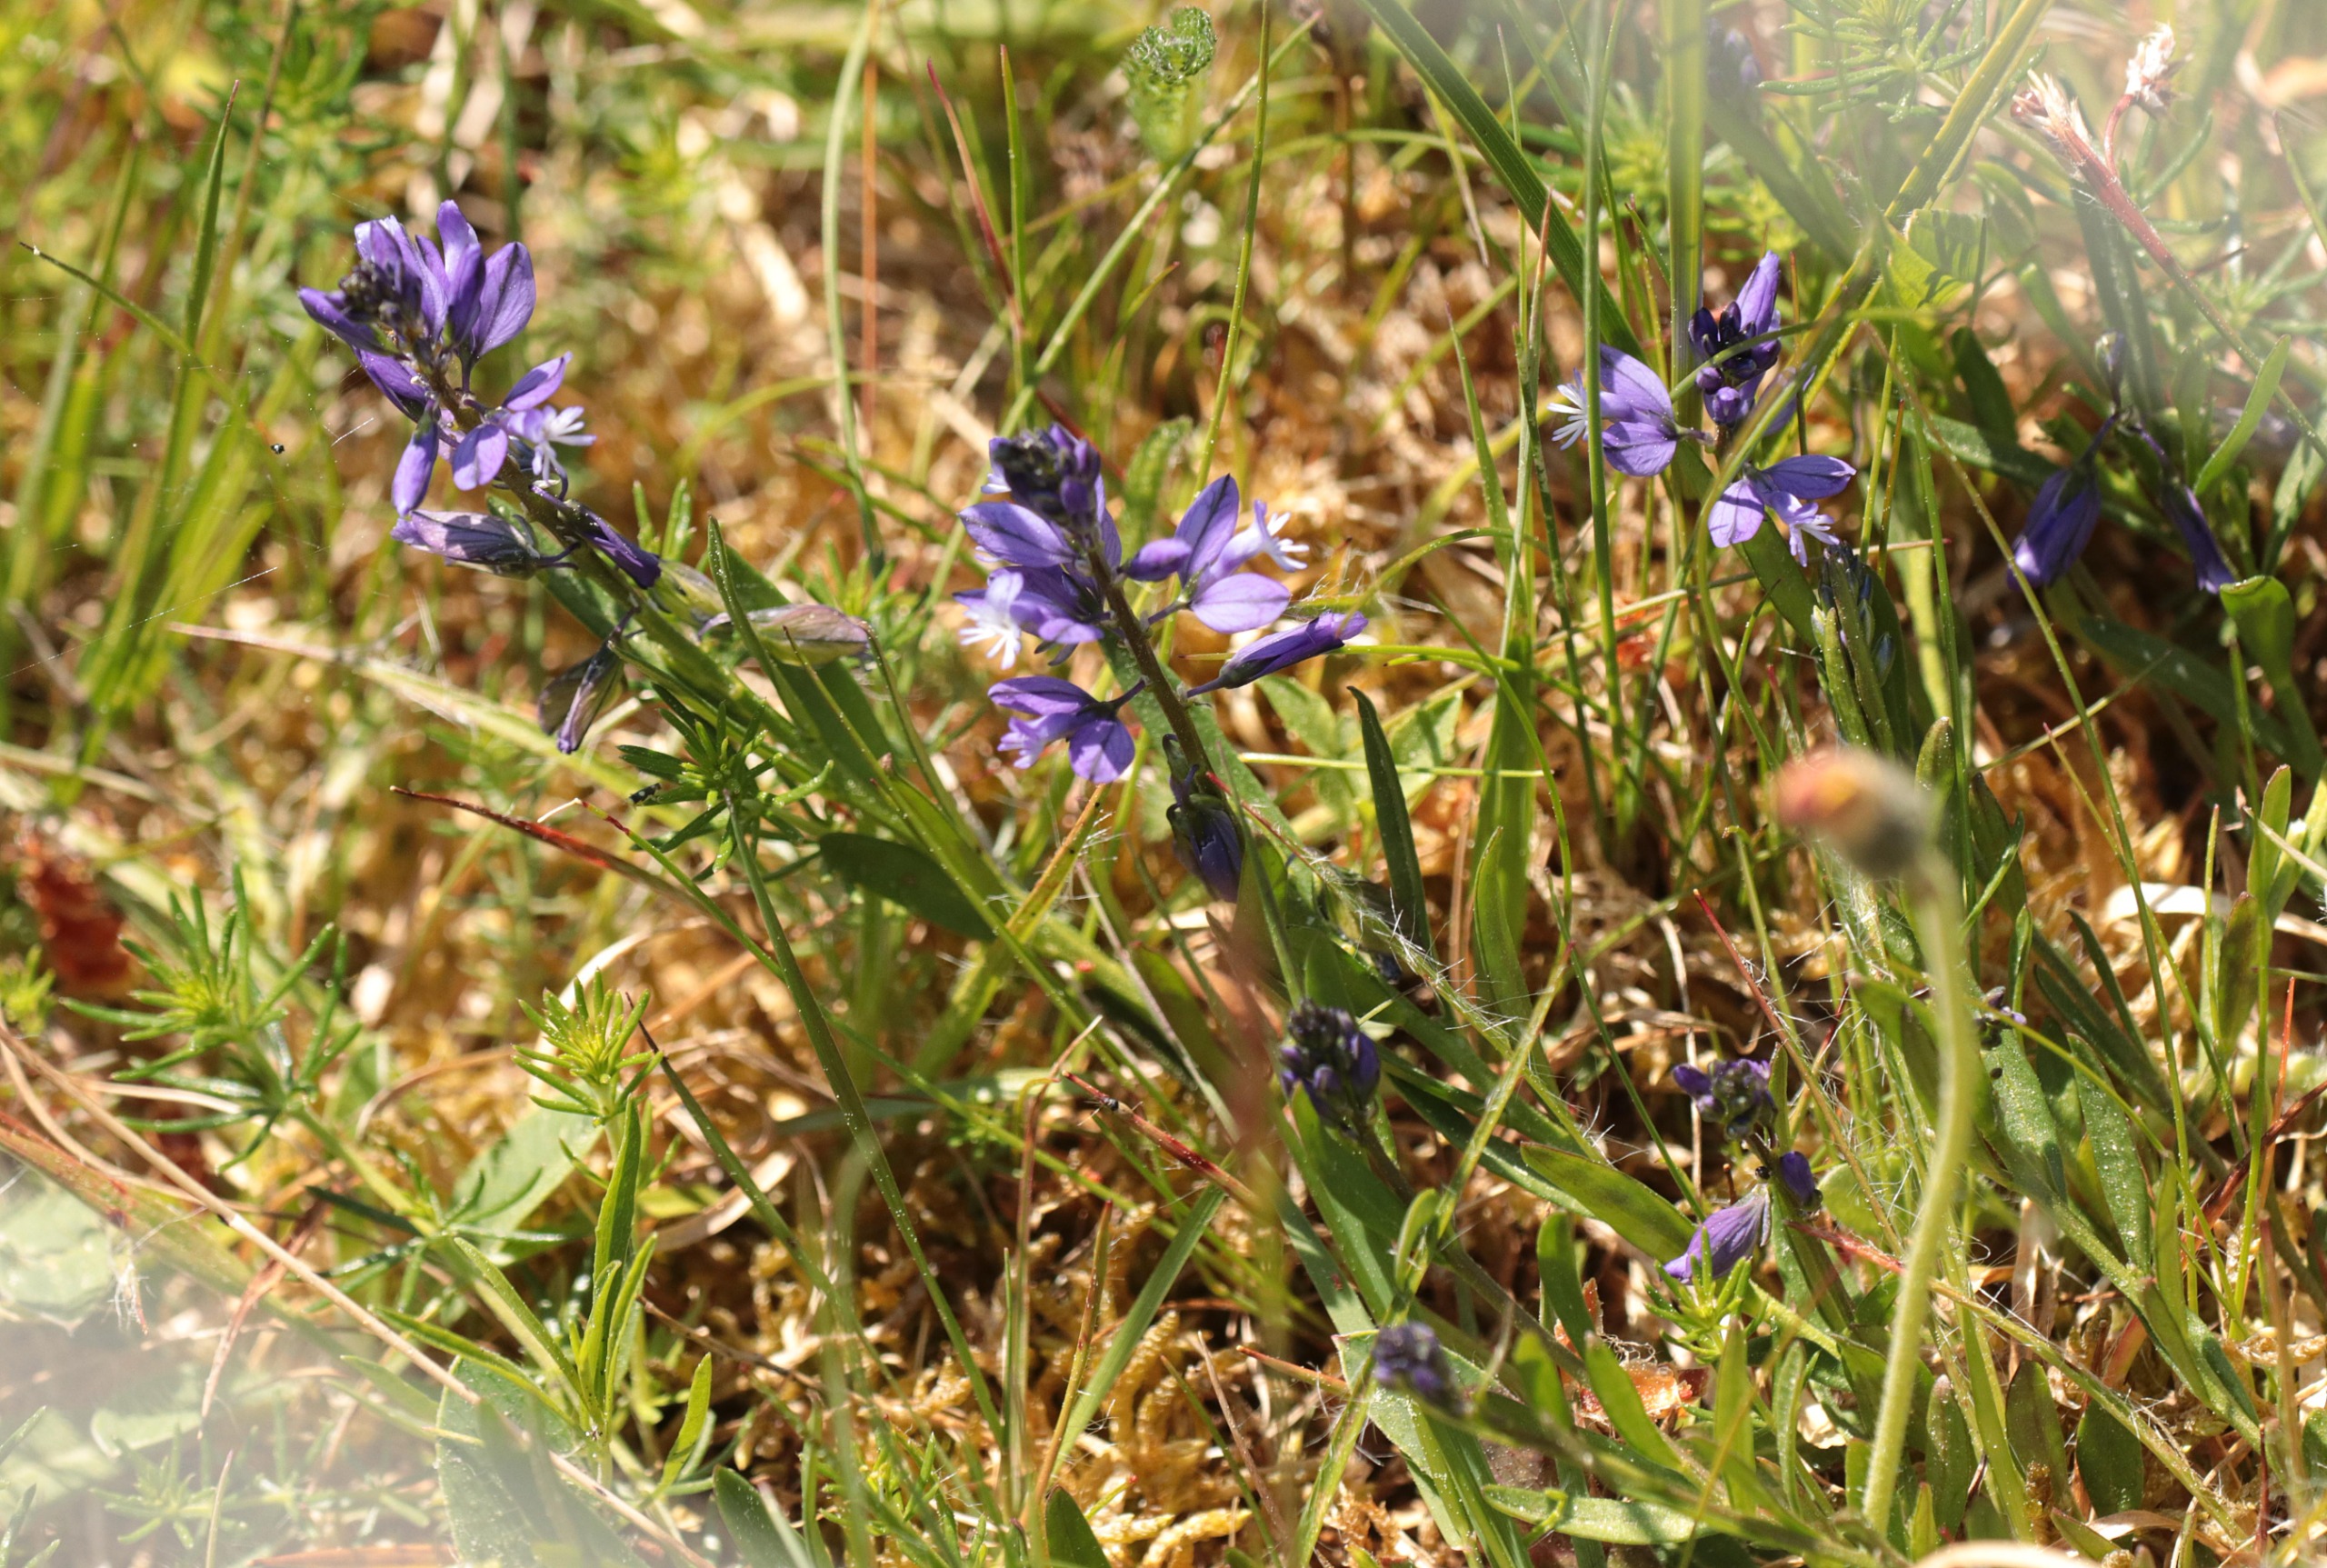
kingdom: Plantae
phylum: Tracheophyta
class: Magnoliopsida
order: Fabales
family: Polygalaceae
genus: Polygala
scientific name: Polygala vulgaris
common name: Almindelig mælkeurt
